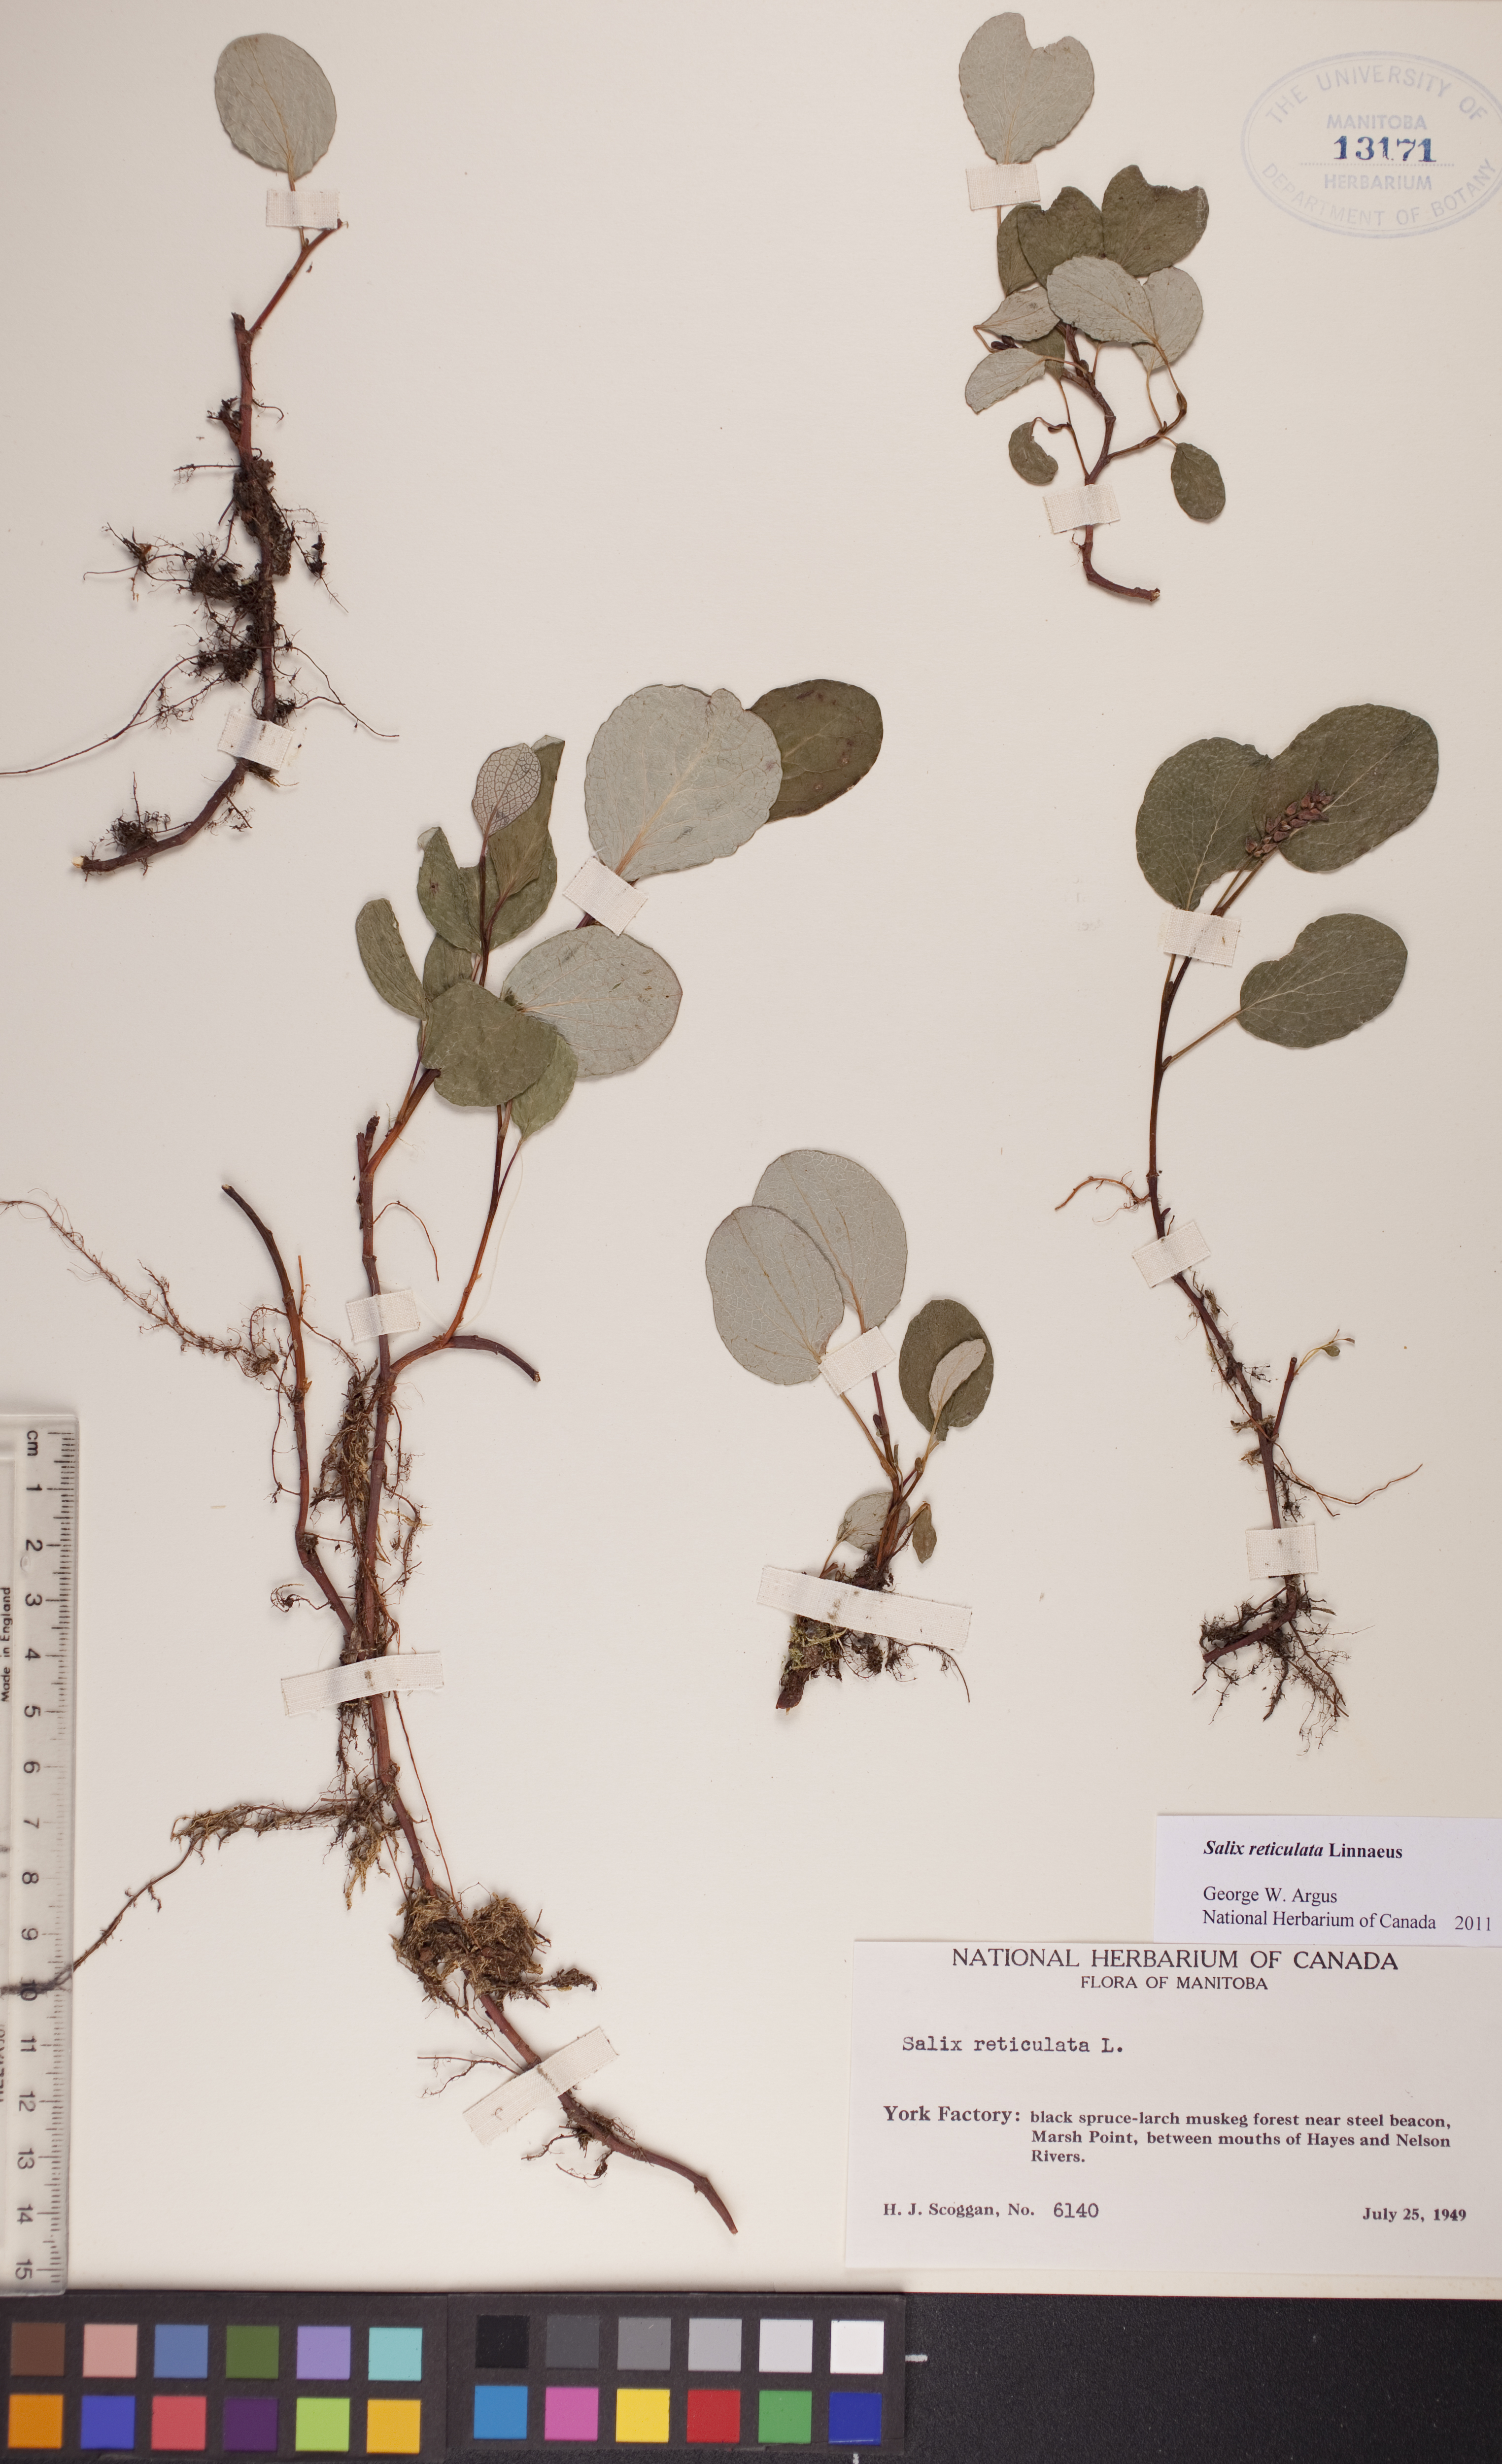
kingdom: Plantae
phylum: Tracheophyta
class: Magnoliopsida
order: Malpighiales
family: Salicaceae
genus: Salix
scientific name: Salix reticulata
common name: Net-leaved willow
